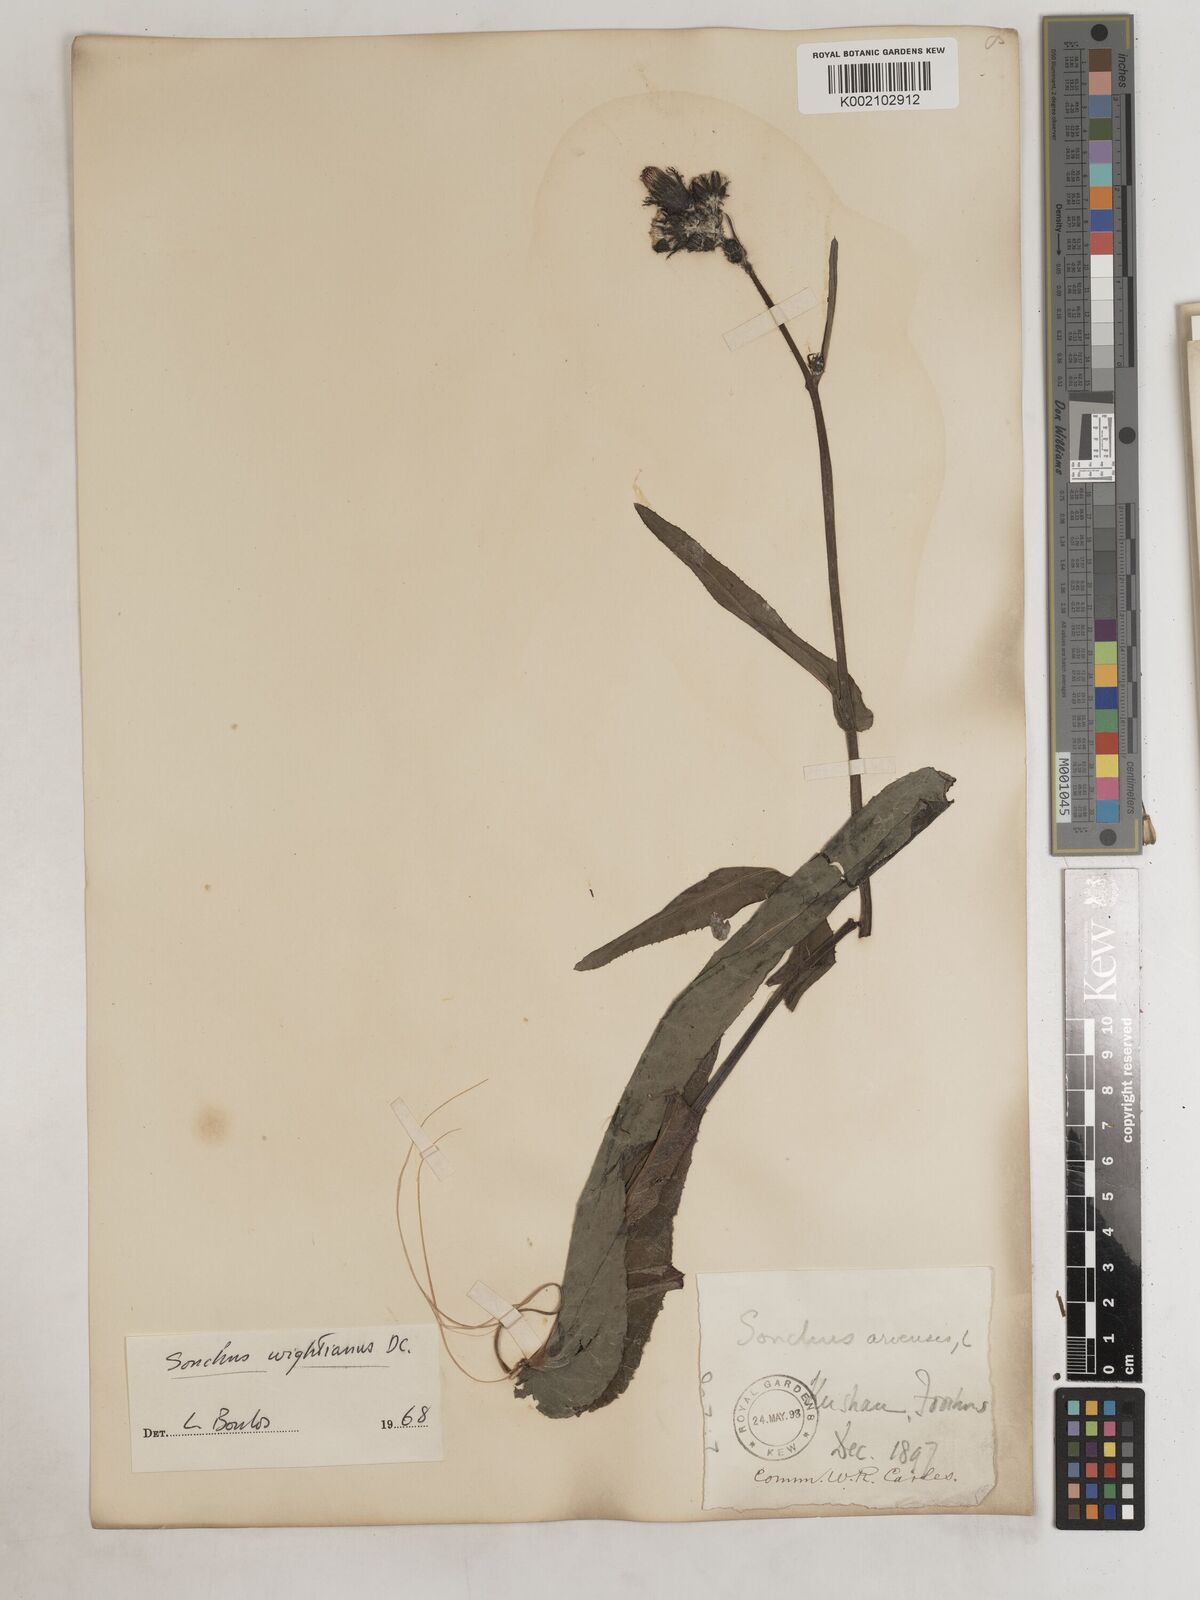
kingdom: Plantae
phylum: Tracheophyta
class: Magnoliopsida
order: Asterales
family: Asteraceae
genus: Sonchus
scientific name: Sonchus wightianus
